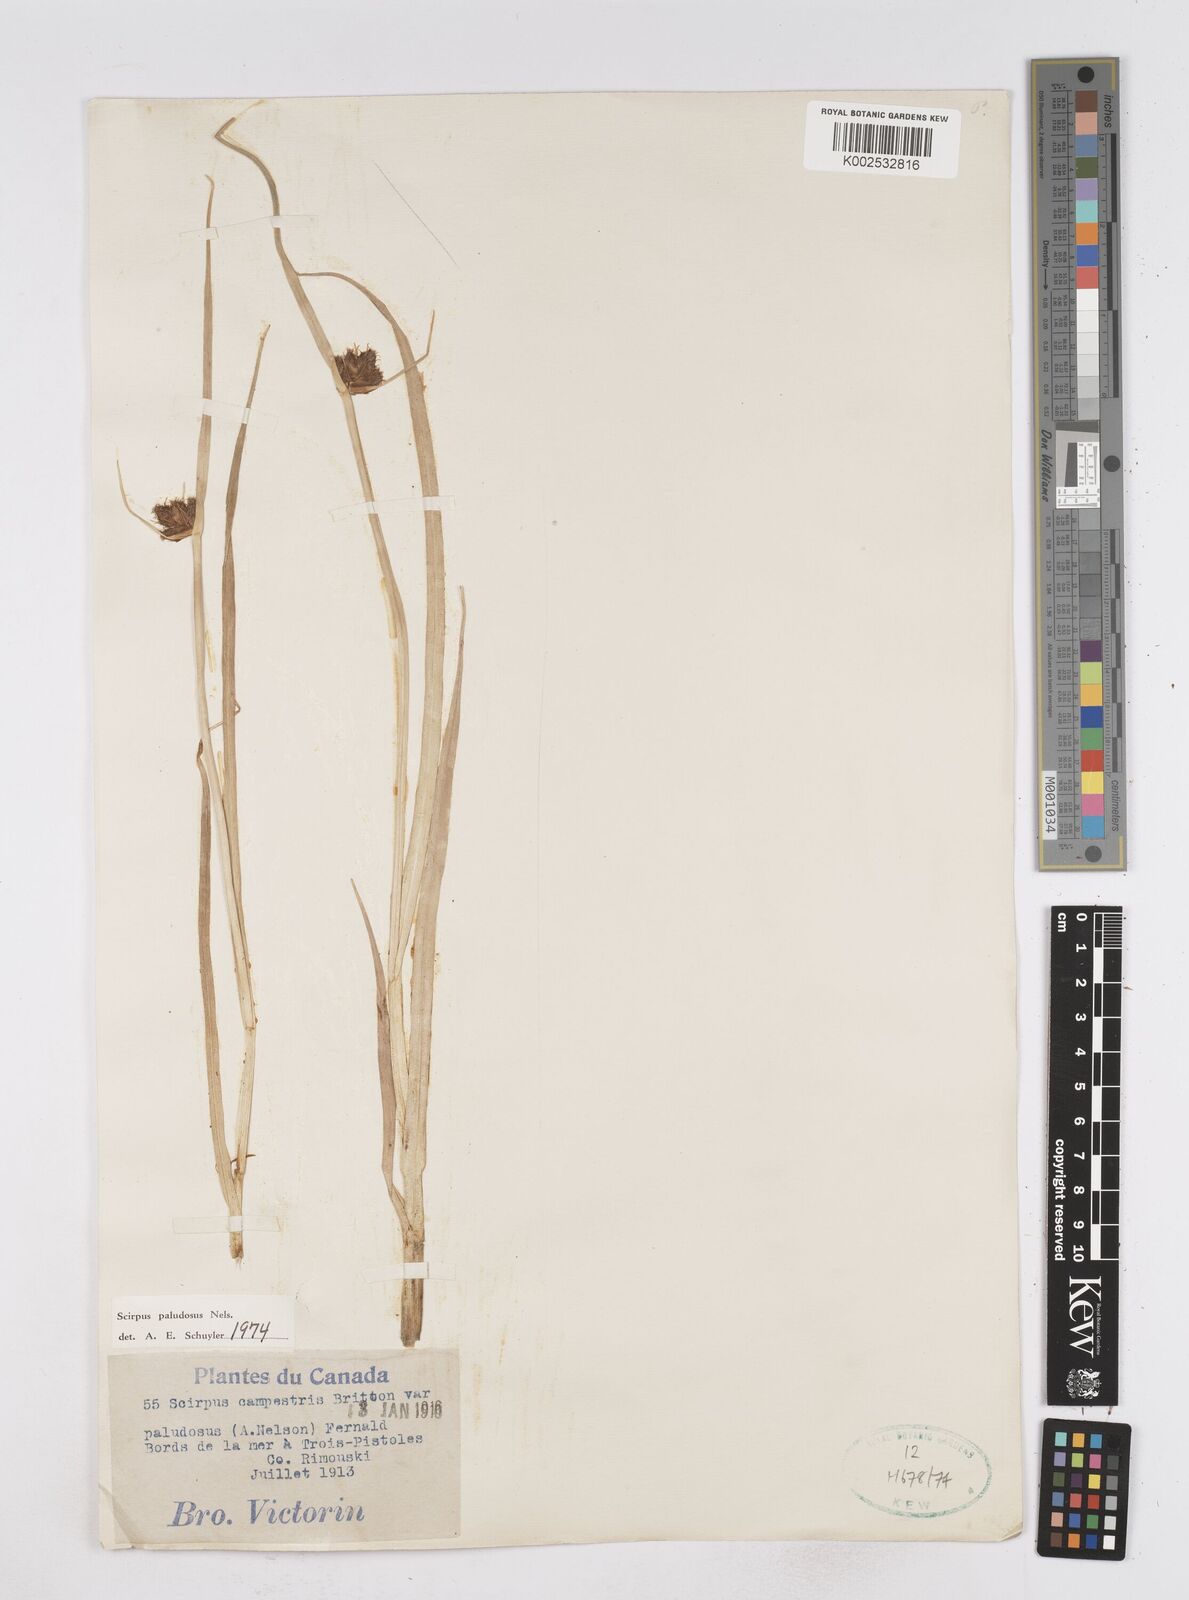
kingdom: Plantae
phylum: Tracheophyta
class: Liliopsida
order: Poales
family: Cyperaceae
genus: Bolboschoenus
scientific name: Bolboschoenus maritimus
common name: Sea club-rush
